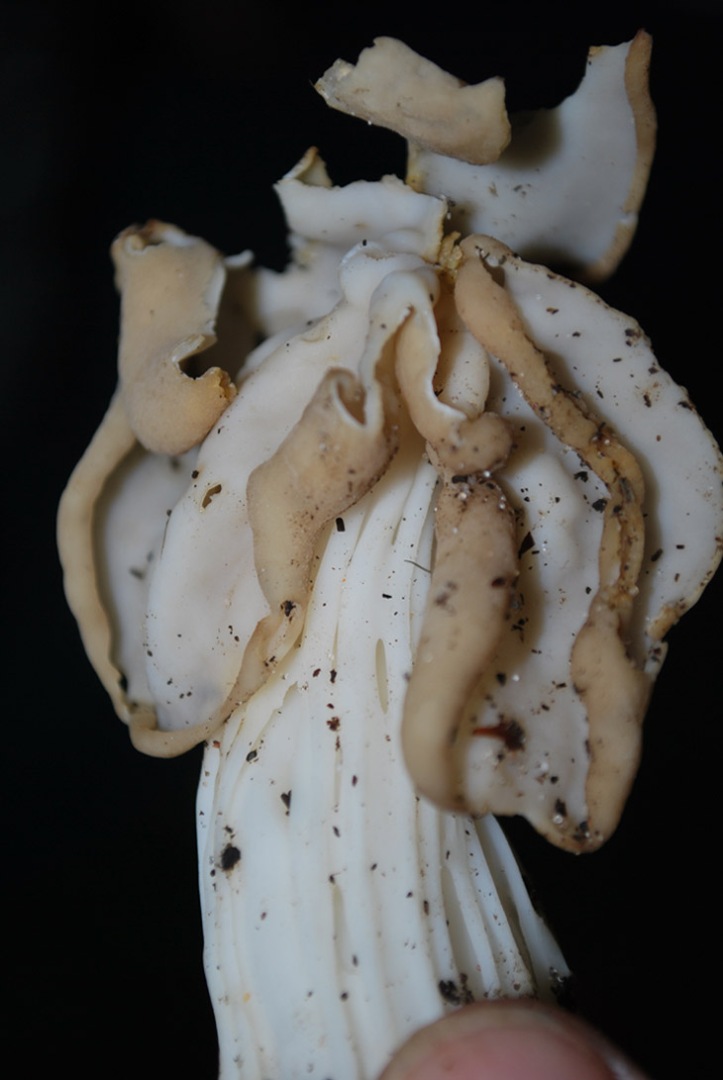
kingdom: Fungi
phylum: Ascomycota
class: Pezizomycetes
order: Pezizales
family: Helvellaceae
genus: Helvella
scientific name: Helvella crispa
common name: kruset foldhat
